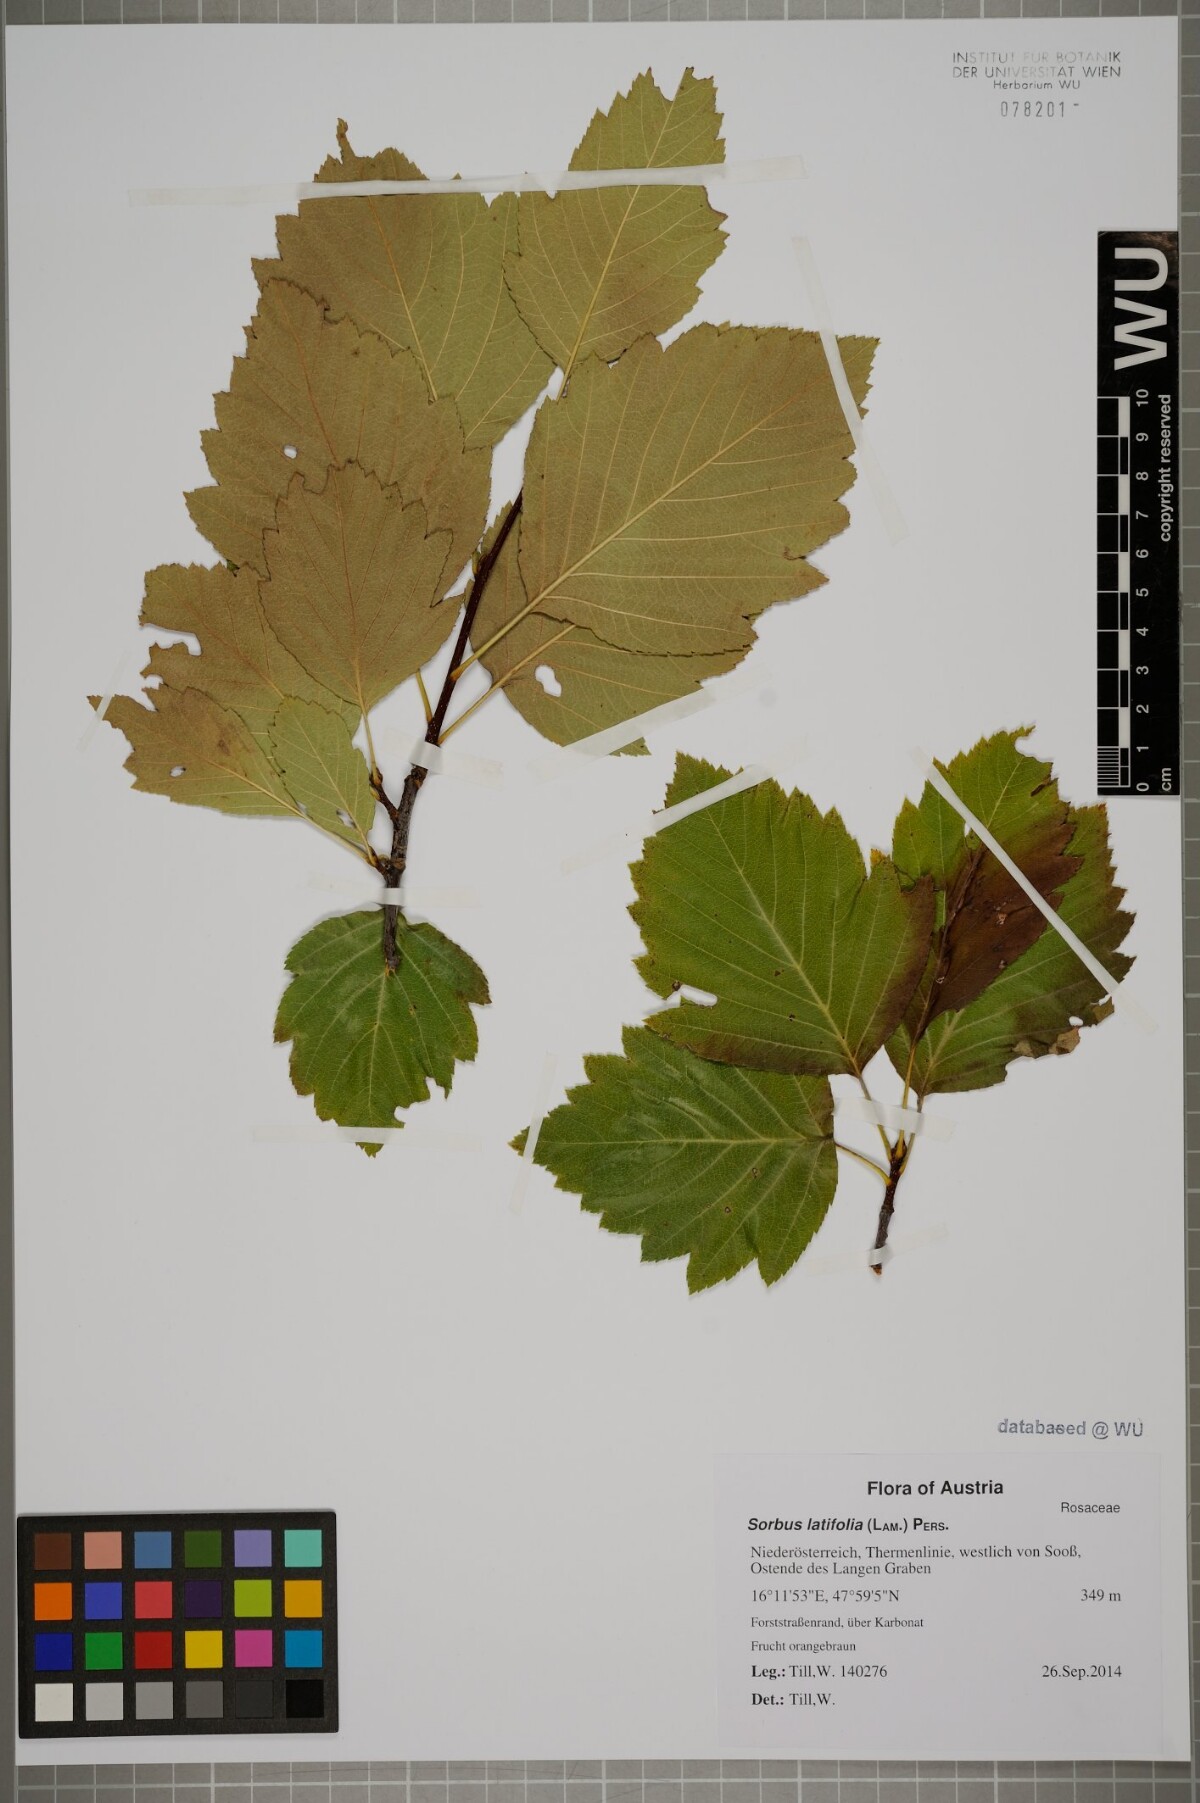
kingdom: Plantae
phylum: Tracheophyta
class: Magnoliopsida
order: Rosales
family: Rosaceae
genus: Karpatiosorbus
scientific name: Karpatiosorbus latifolia
